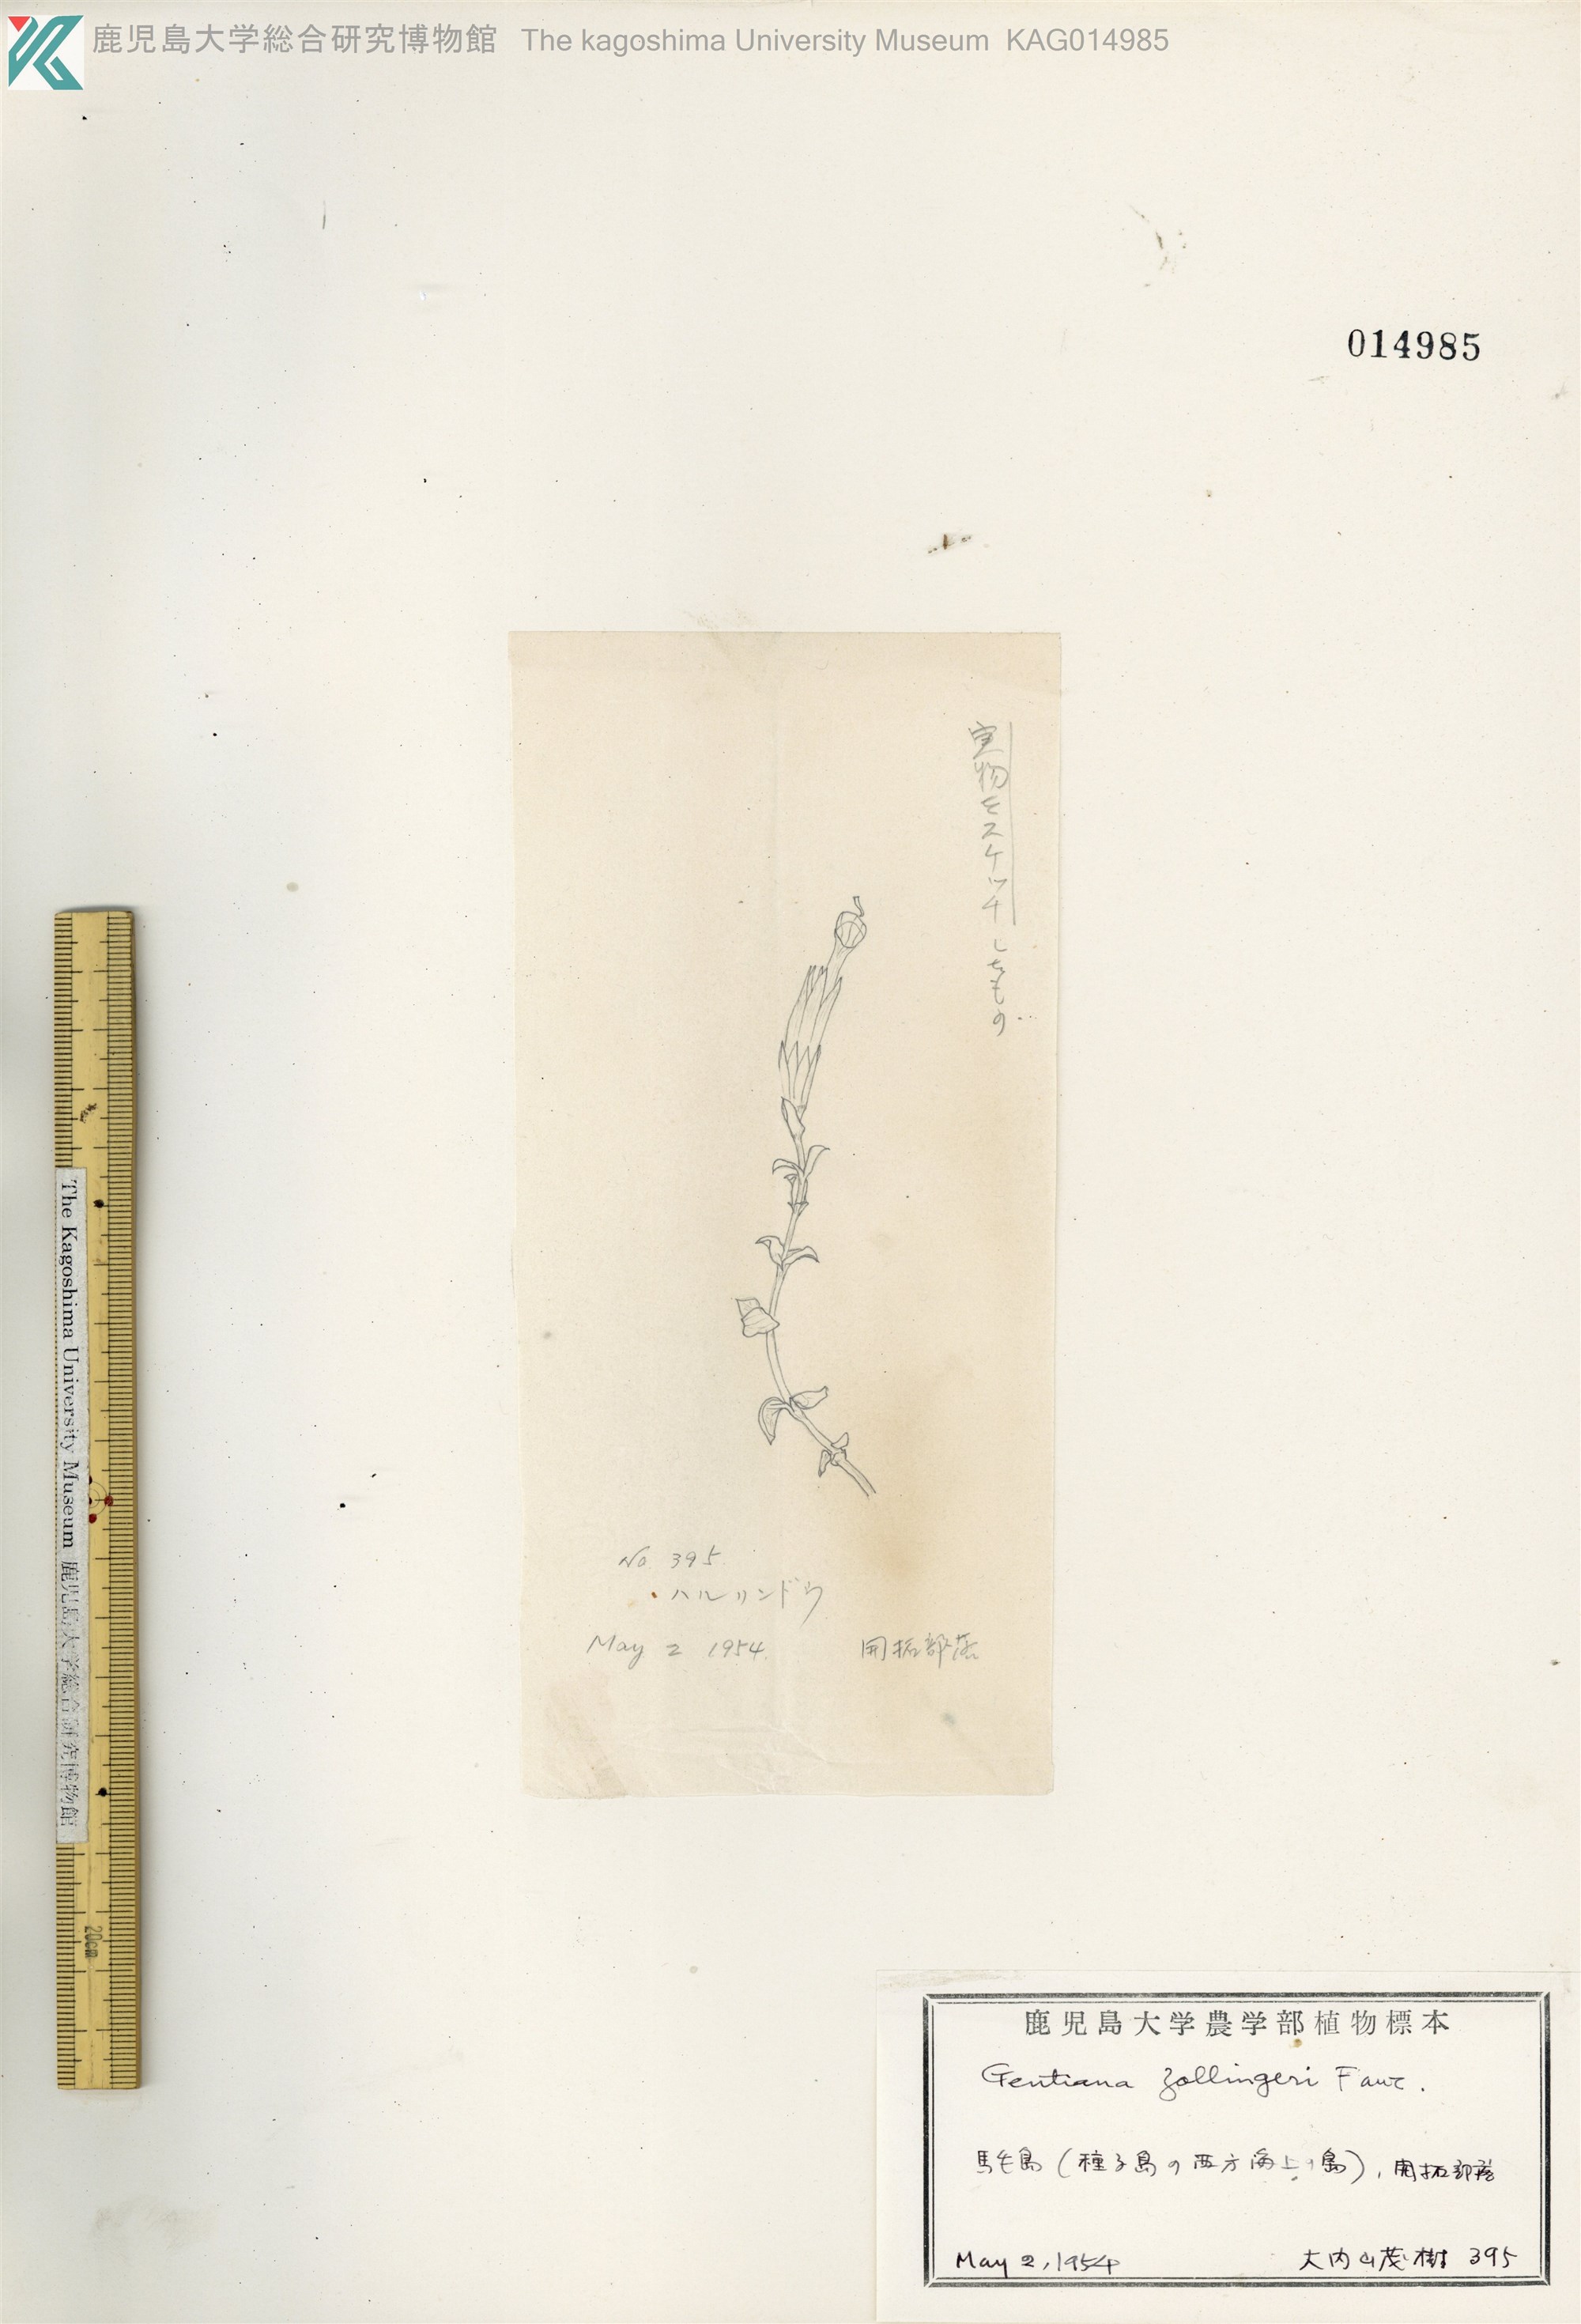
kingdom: Plantae
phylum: Tracheophyta
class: Magnoliopsida
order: Gentianales
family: Gentianaceae
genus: Gentiana
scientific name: Gentiana zollingeri
